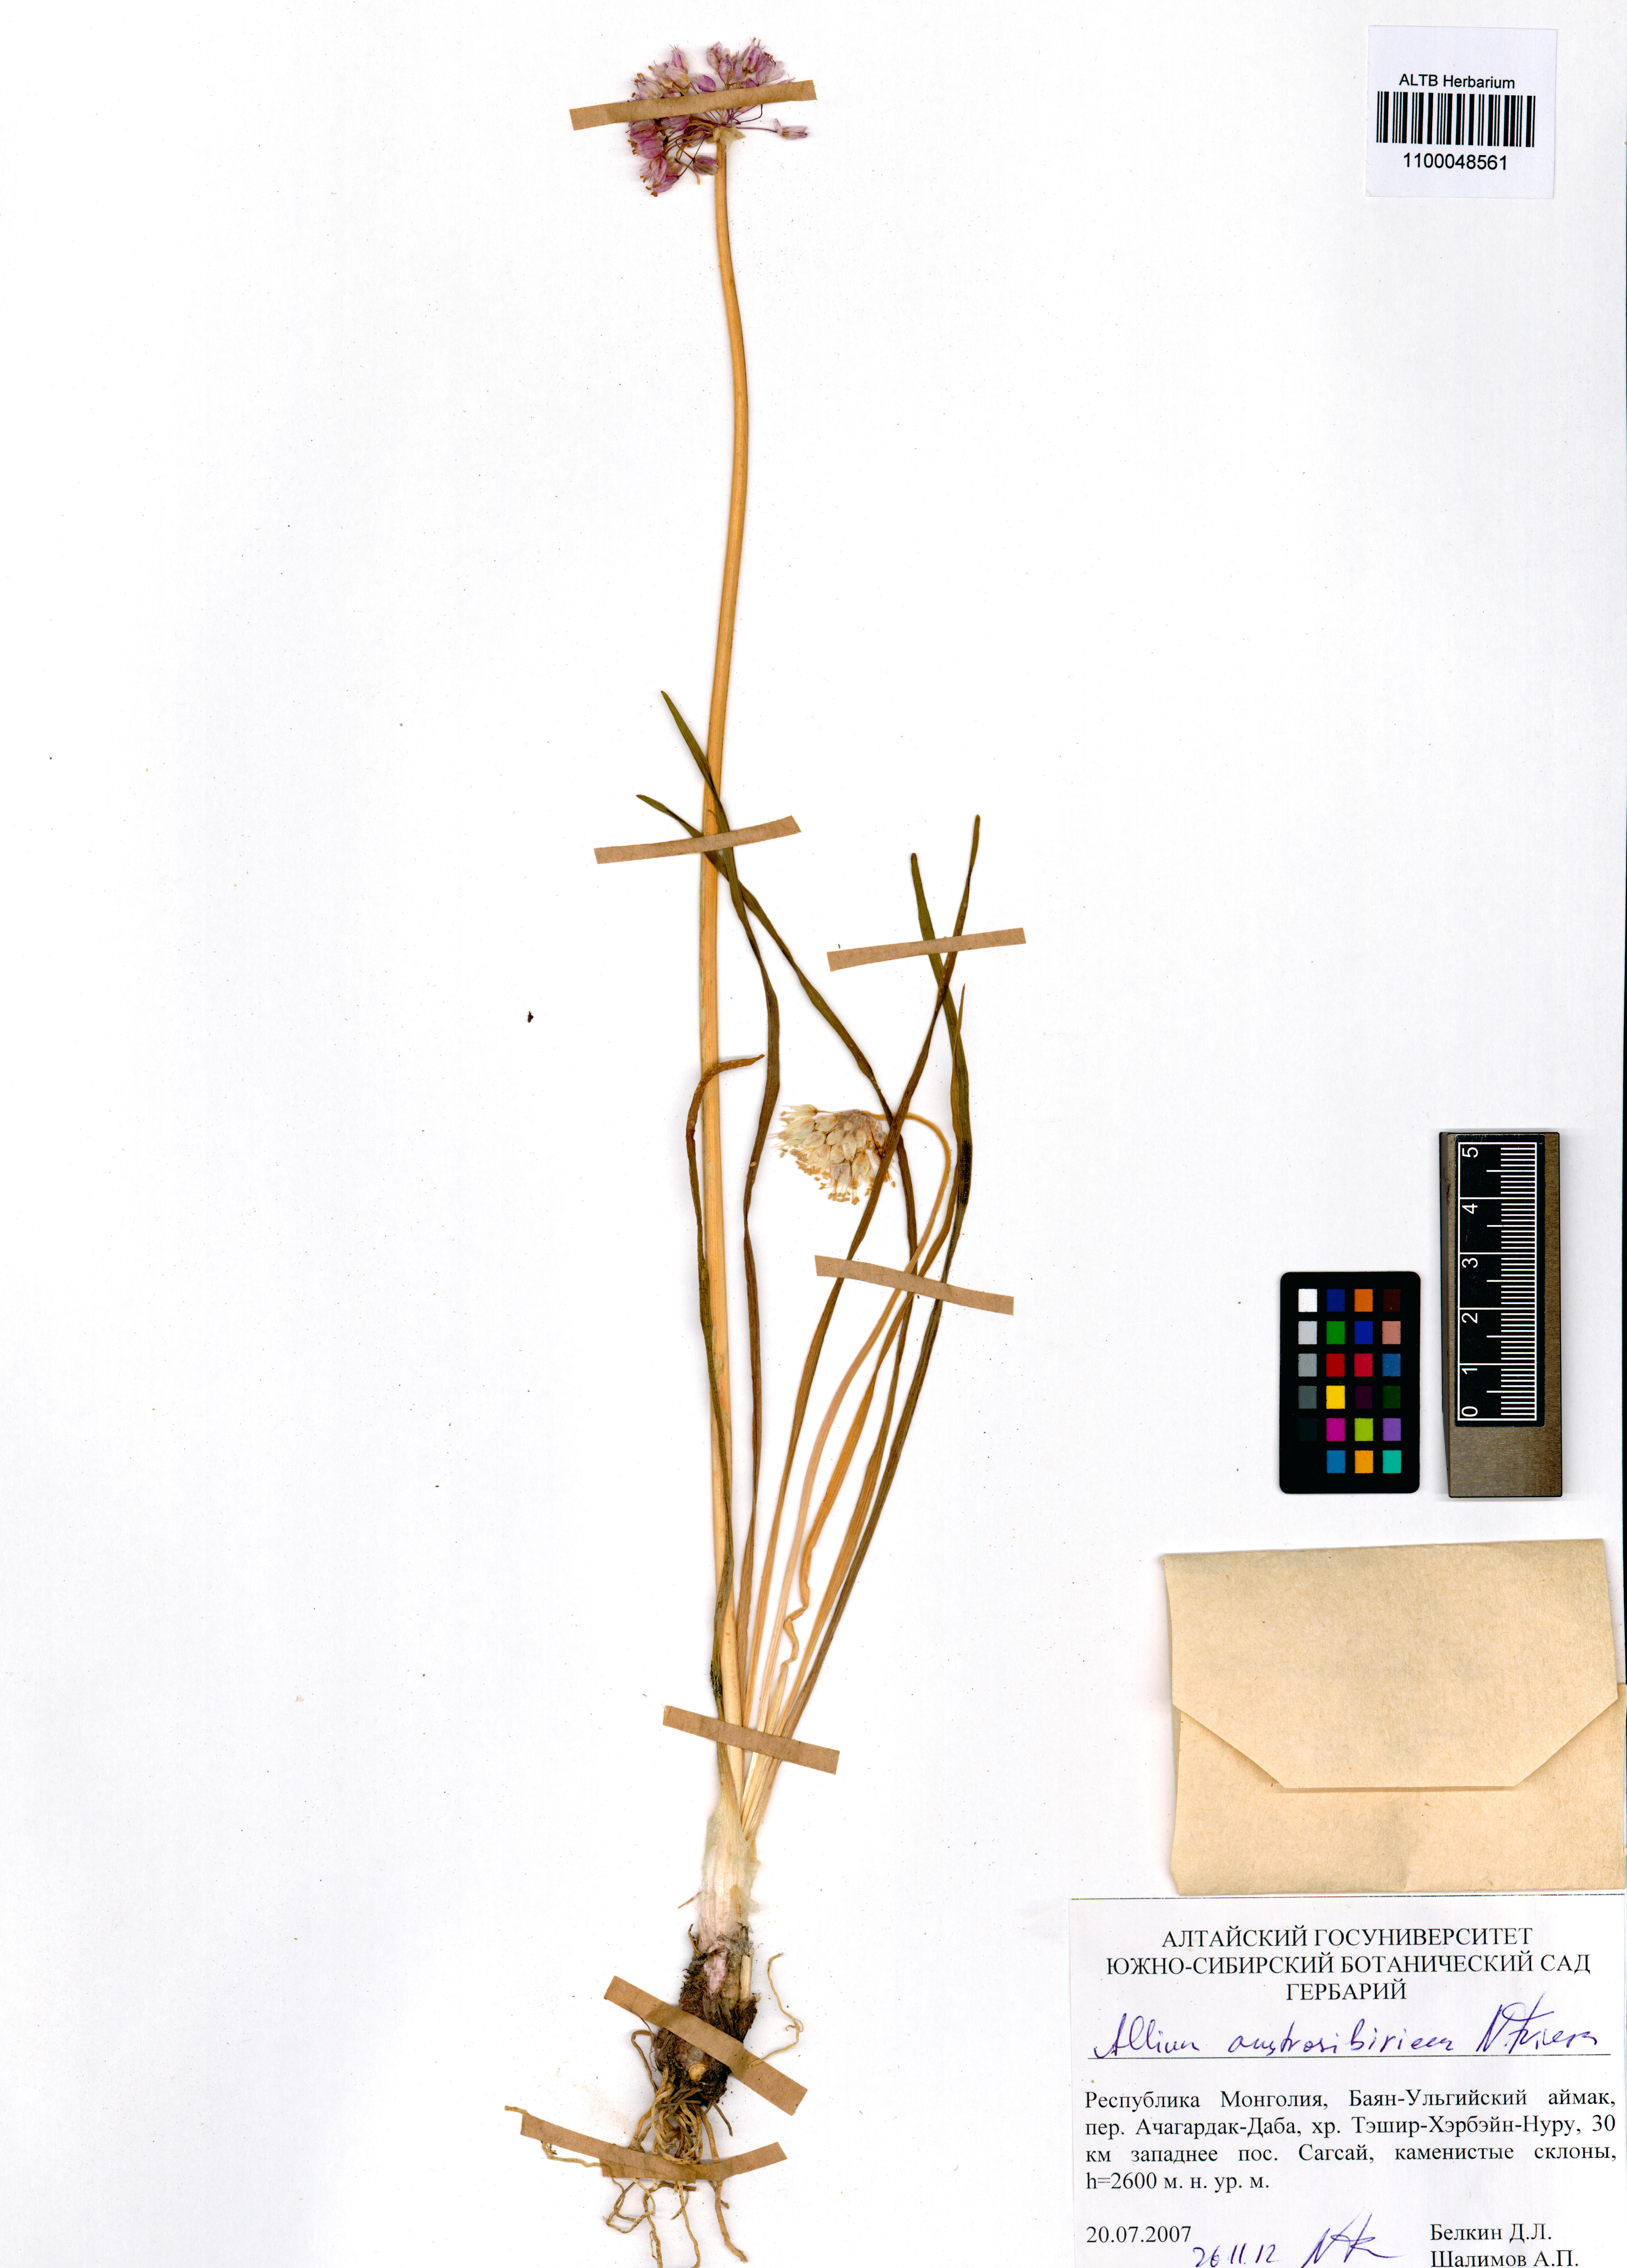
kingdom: Plantae
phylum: Tracheophyta
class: Liliopsida
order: Asparagales
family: Amaryllidaceae
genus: Allium
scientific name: Allium austrosibiricum
